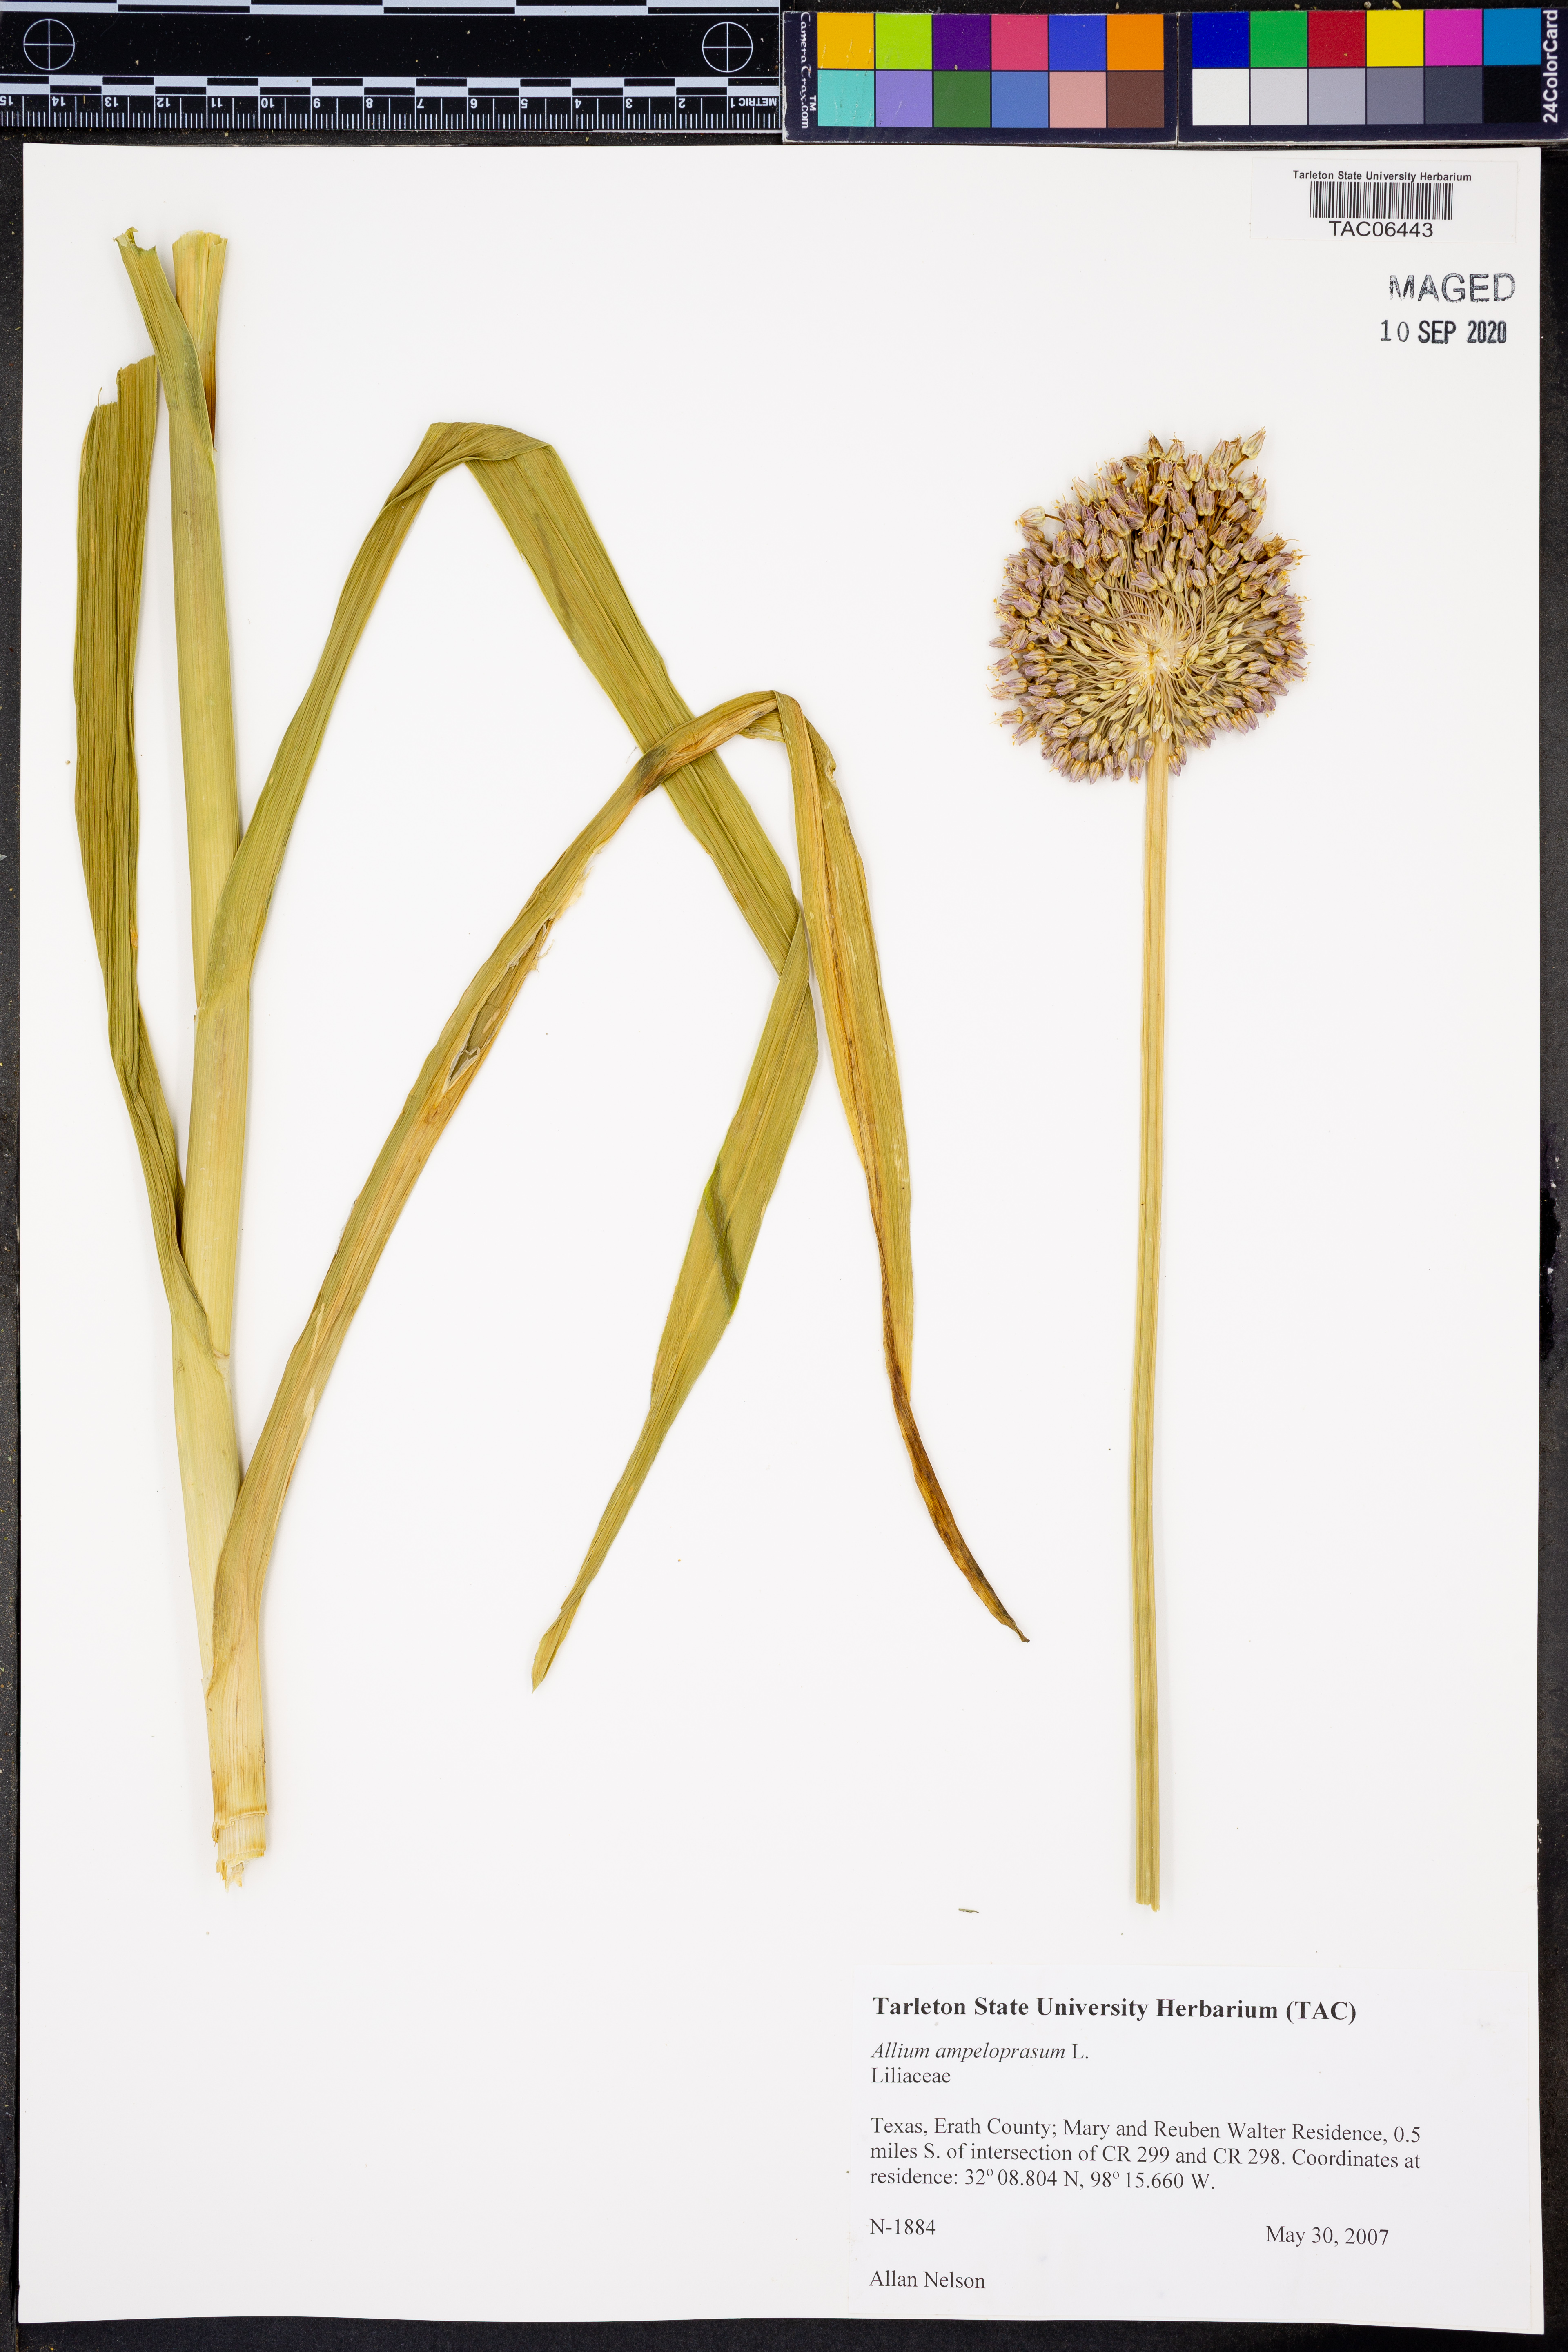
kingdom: Plantae
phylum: Tracheophyta
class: Liliopsida
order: Asparagales
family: Amaryllidaceae
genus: Allium
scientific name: Allium ampeloprasum
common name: Wild leek
